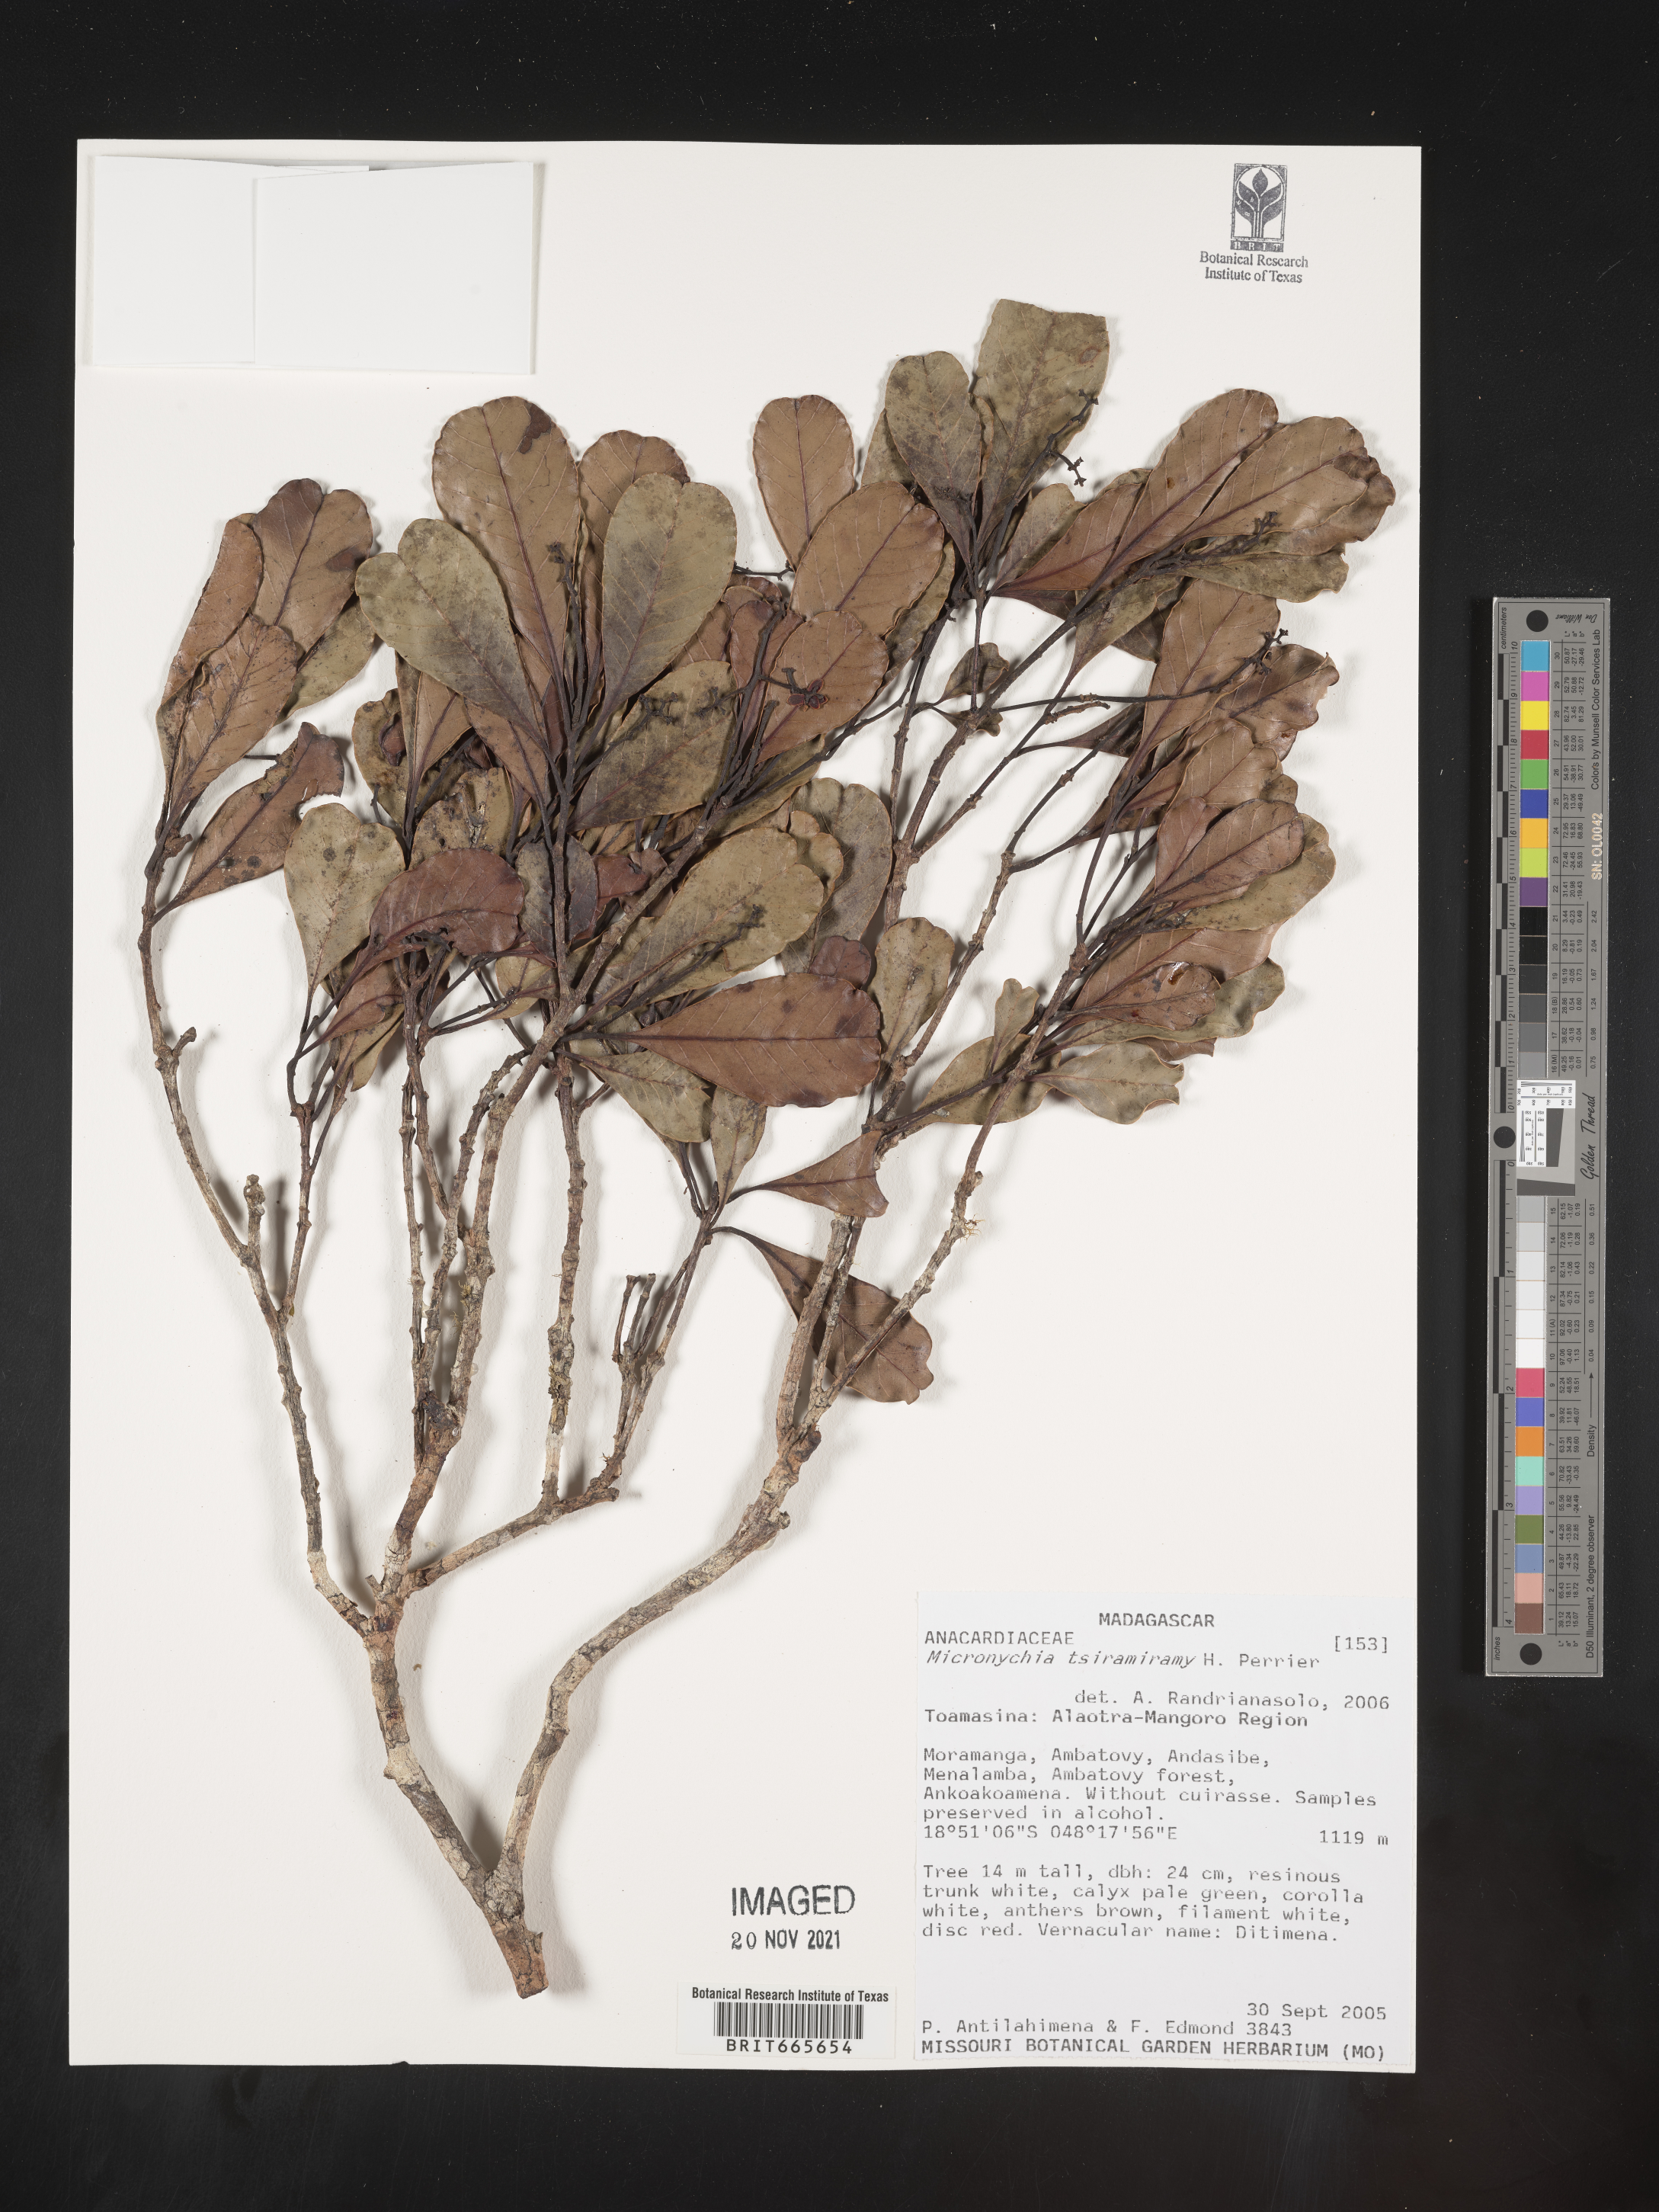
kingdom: Plantae
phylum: Tracheophyta
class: Magnoliopsida
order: Sapindales
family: Anacardiaceae
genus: Micronychia
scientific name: Micronychia
